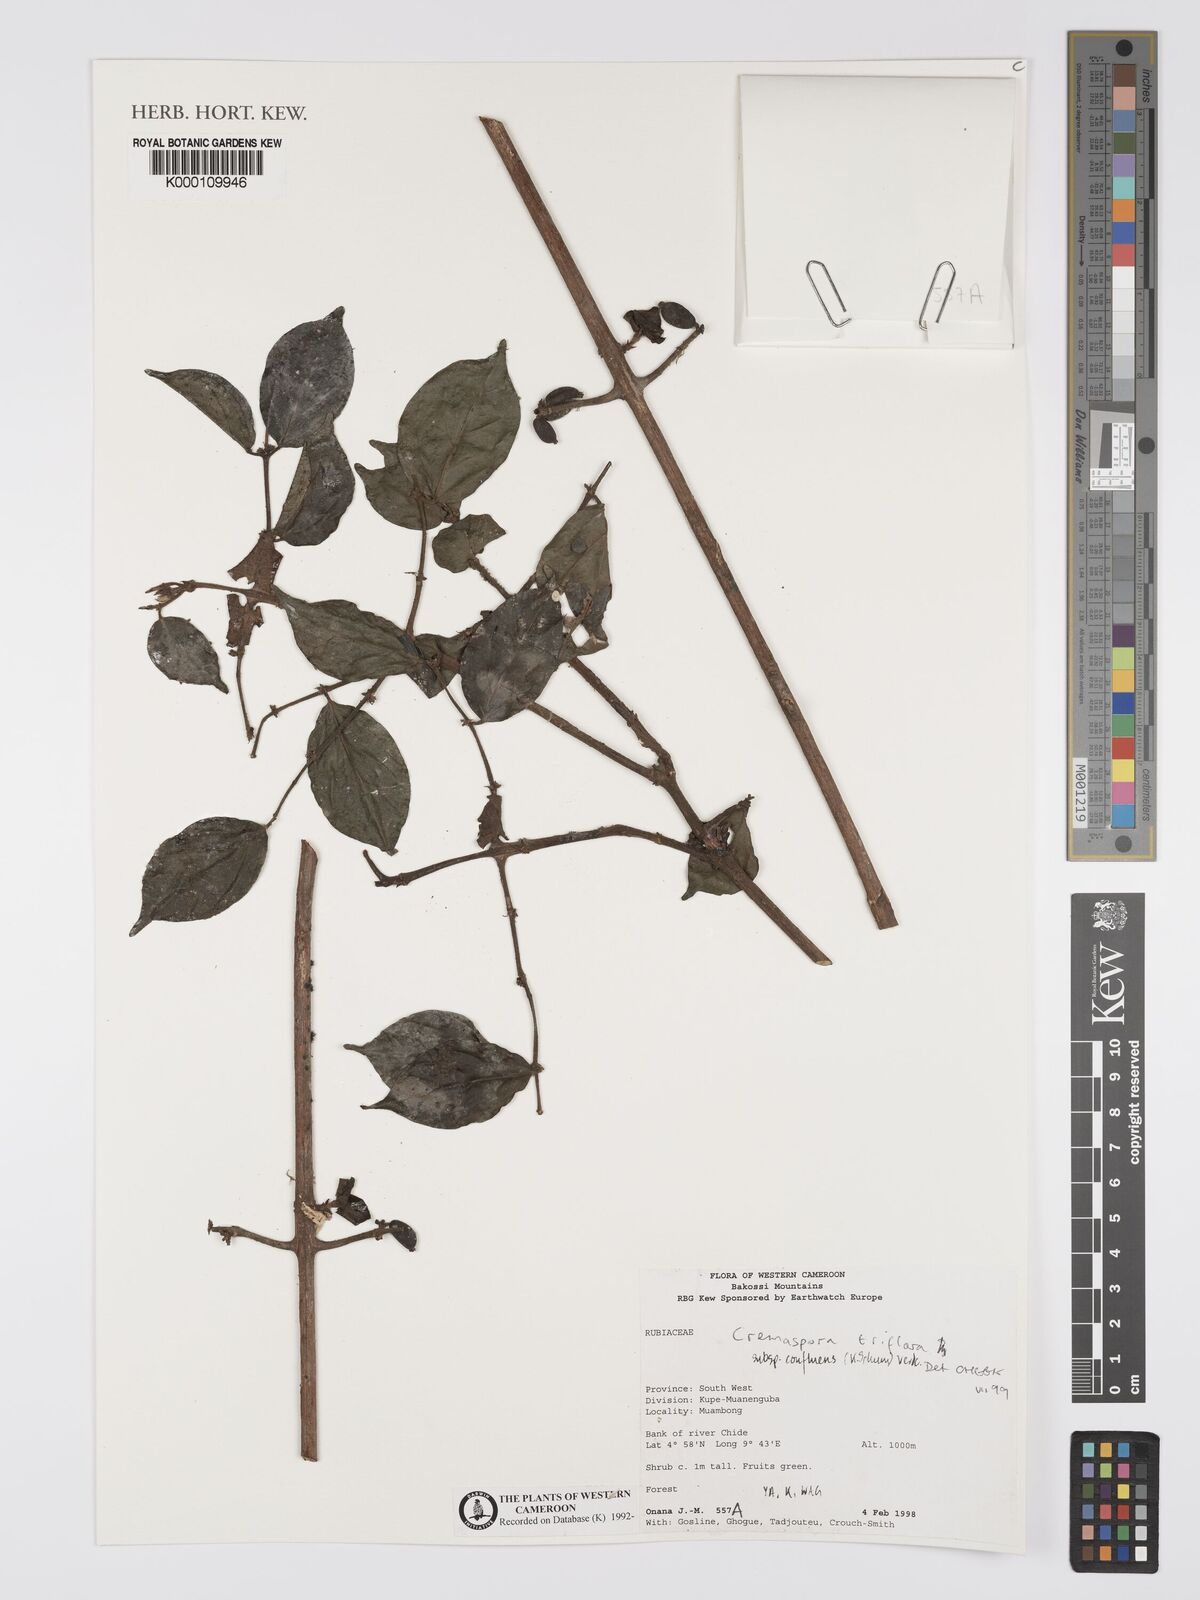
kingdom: Plantae
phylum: Tracheophyta
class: Magnoliopsida
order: Gentianales
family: Rubiaceae
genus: Cremaspora
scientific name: Cremaspora triflora
